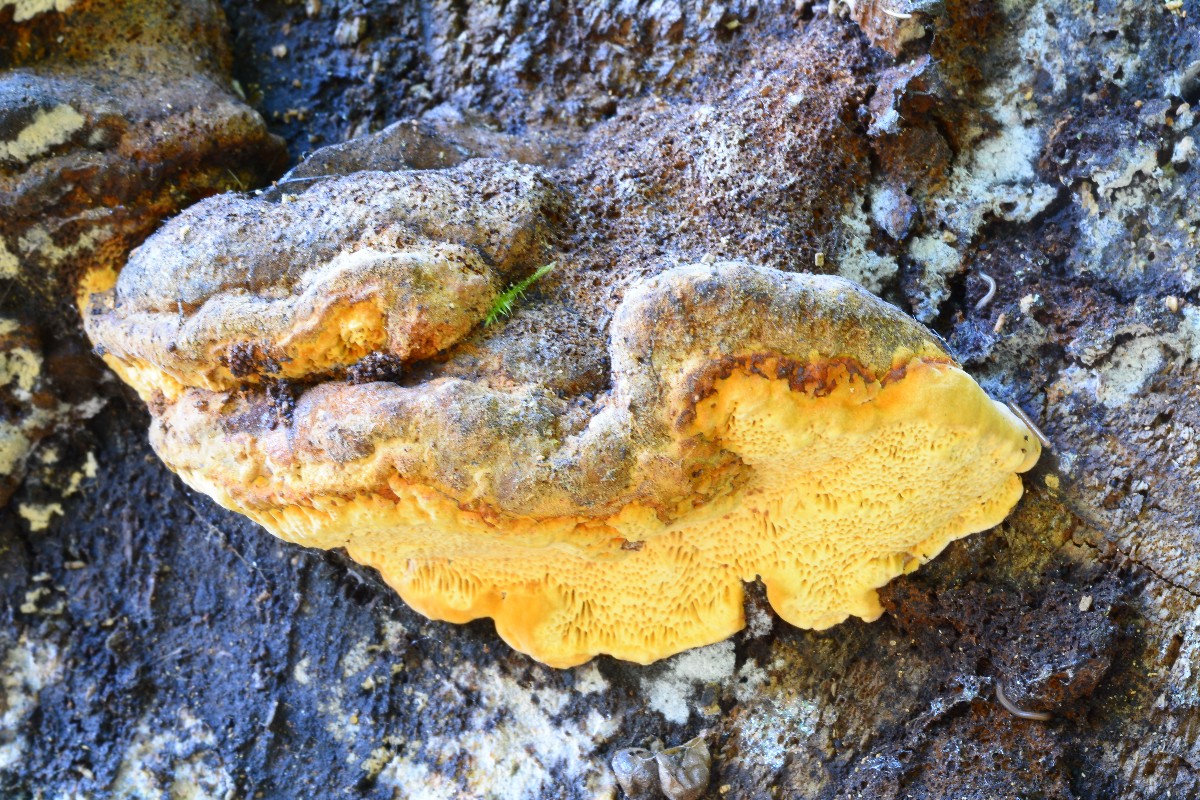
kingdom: Fungi
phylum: Basidiomycota
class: Agaricomycetes
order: Gloeophyllales
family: Gloeophyllaceae
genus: Gloeophyllum
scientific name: Gloeophyllum odoratum
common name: duftende korkhat
